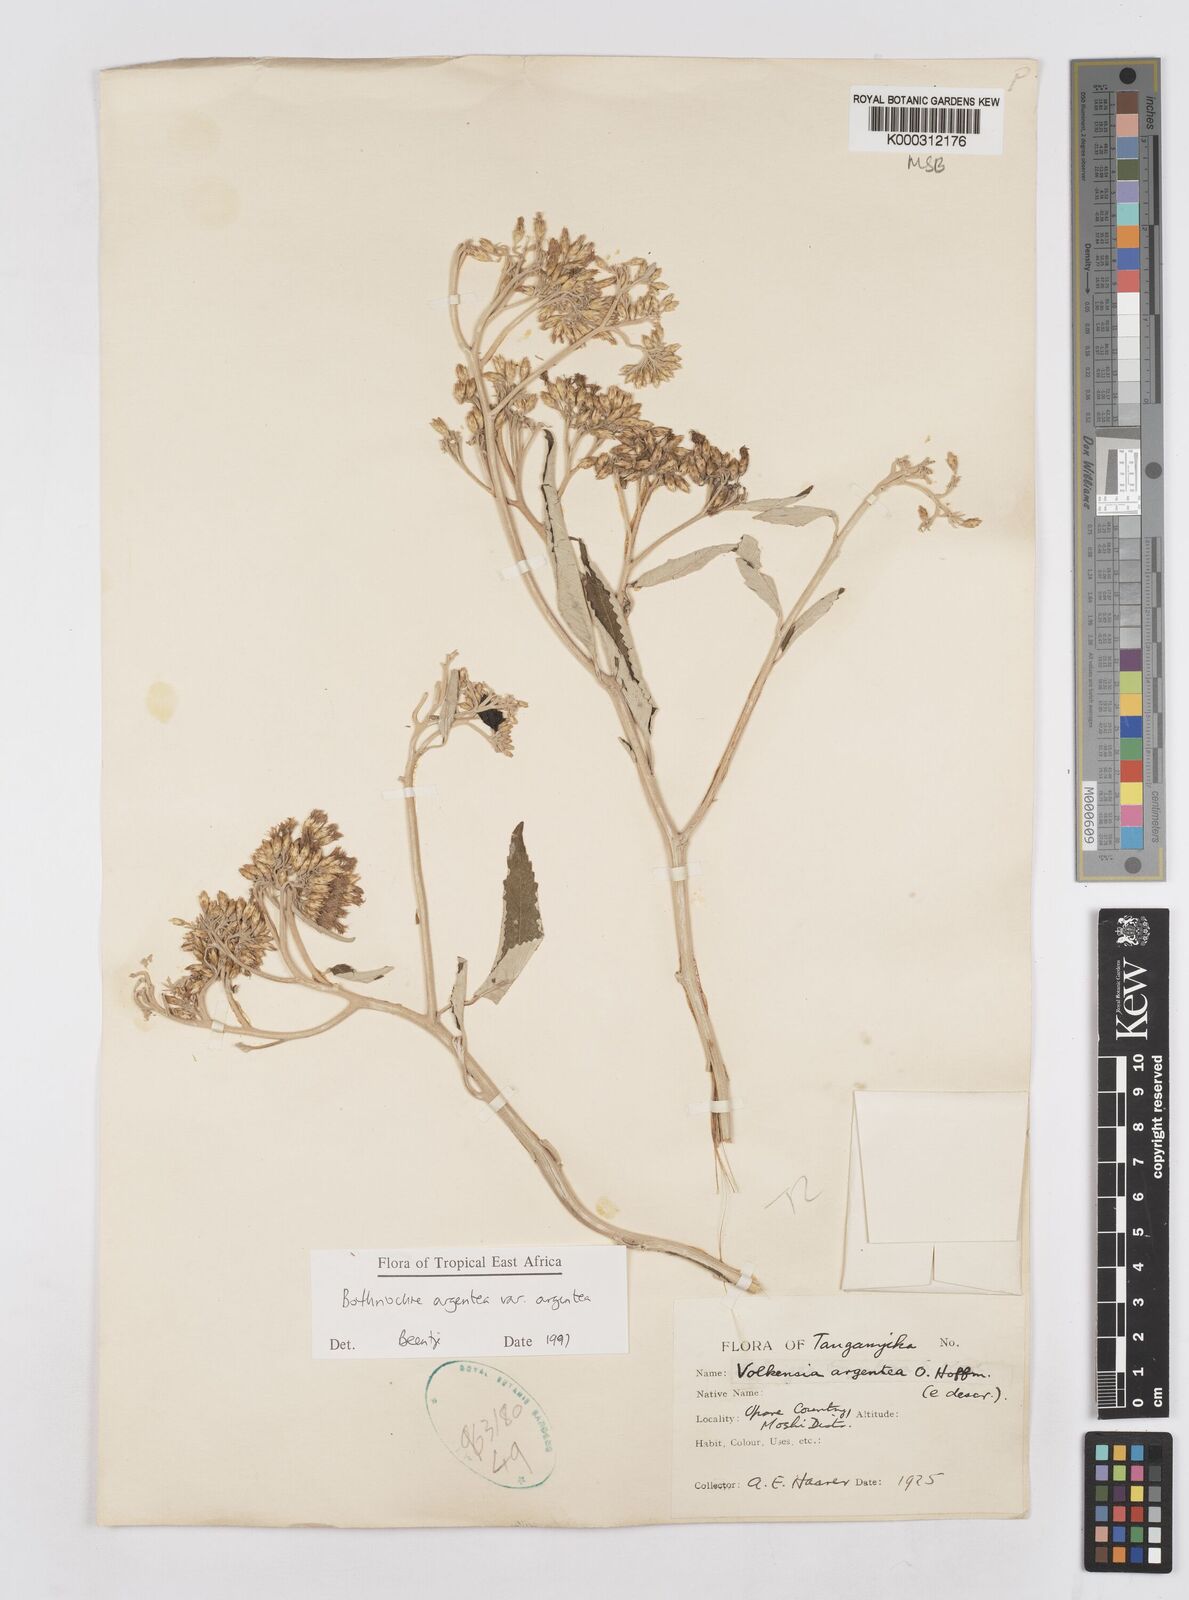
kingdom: Plantae
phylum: Tracheophyta
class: Magnoliopsida
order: Asterales
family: Asteraceae
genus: Bothriocline
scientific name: Bothriocline argentea
